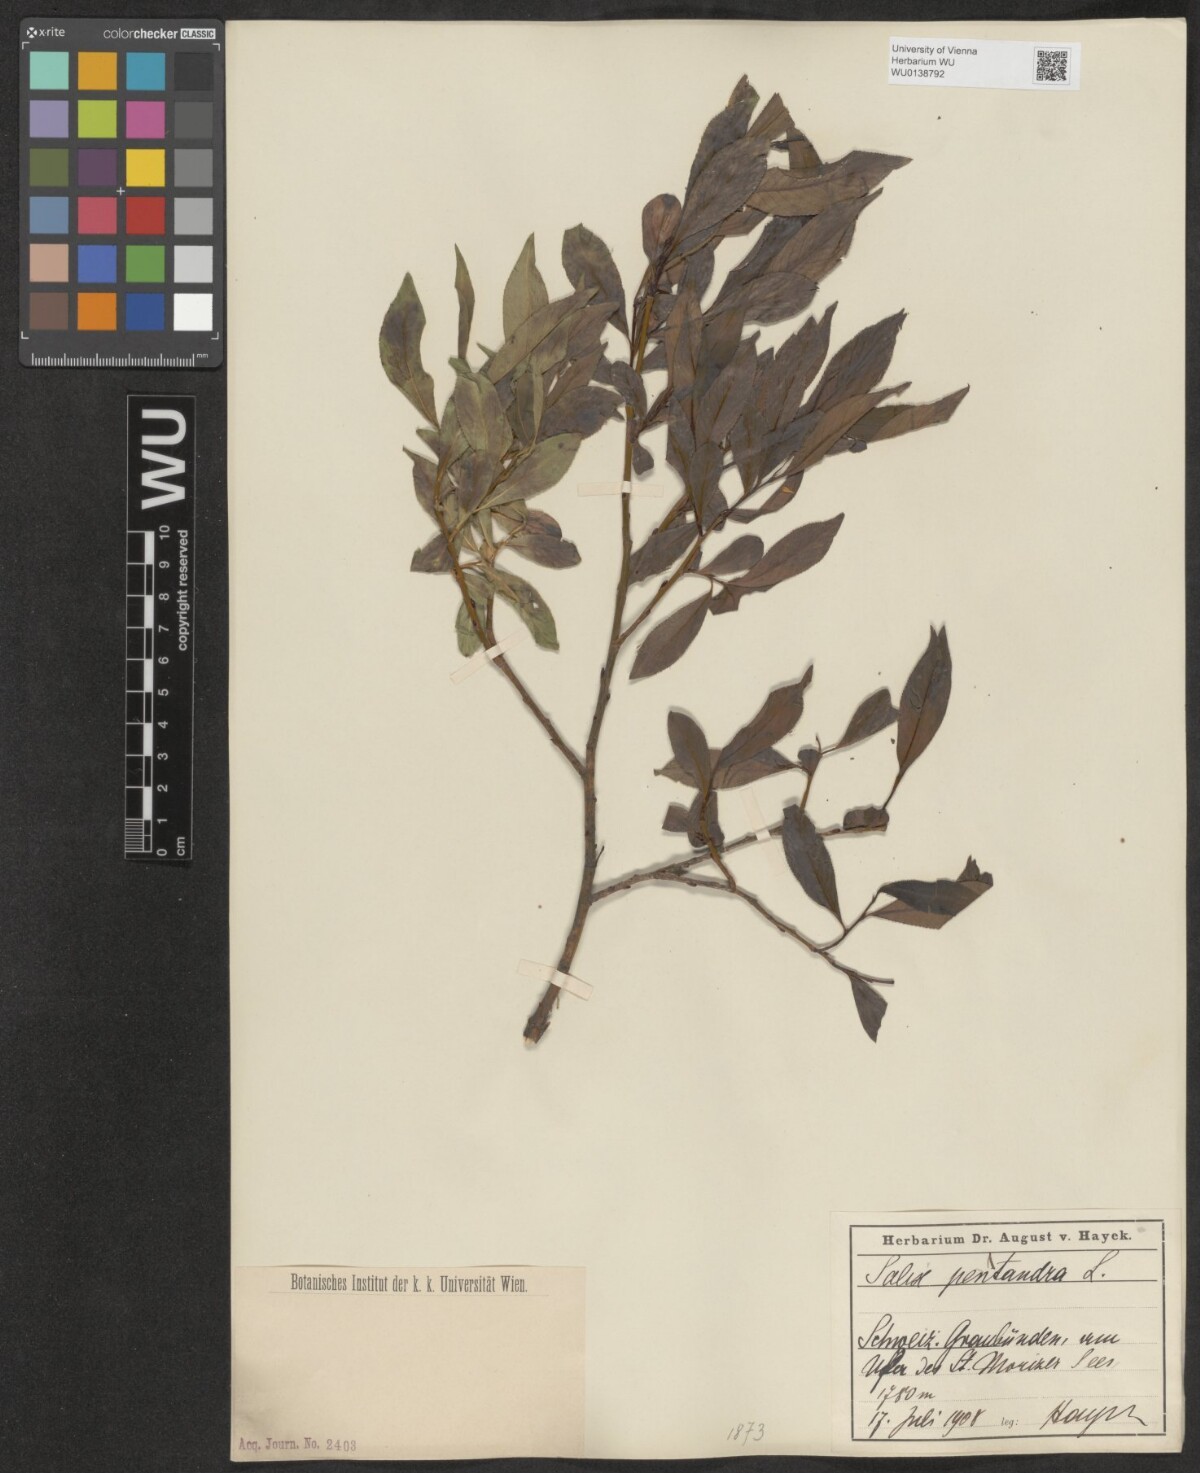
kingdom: Plantae
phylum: Tracheophyta
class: Magnoliopsida
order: Malpighiales
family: Salicaceae
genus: Salix
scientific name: Salix pentandra
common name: Bay willow
